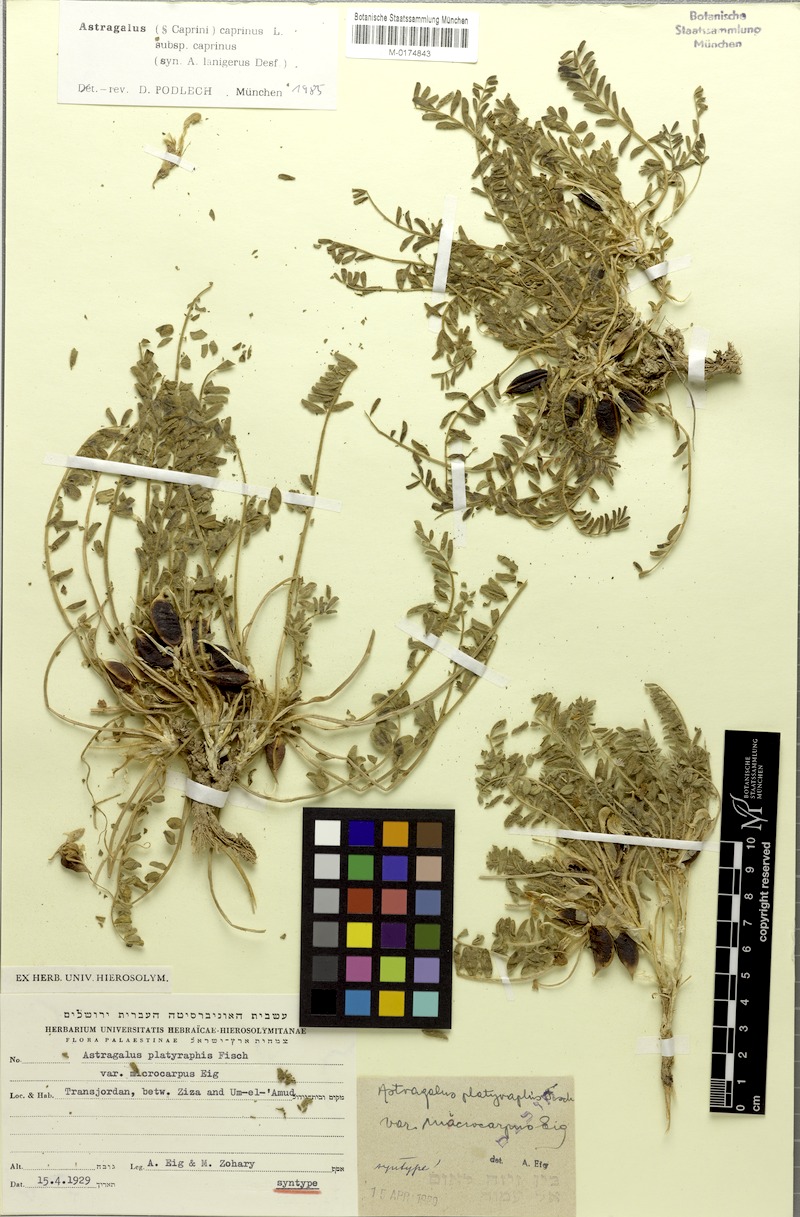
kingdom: Plantae
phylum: Tracheophyta
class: Magnoliopsida
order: Fabales
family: Fabaceae
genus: Astragalus
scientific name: Astragalus caprinus
